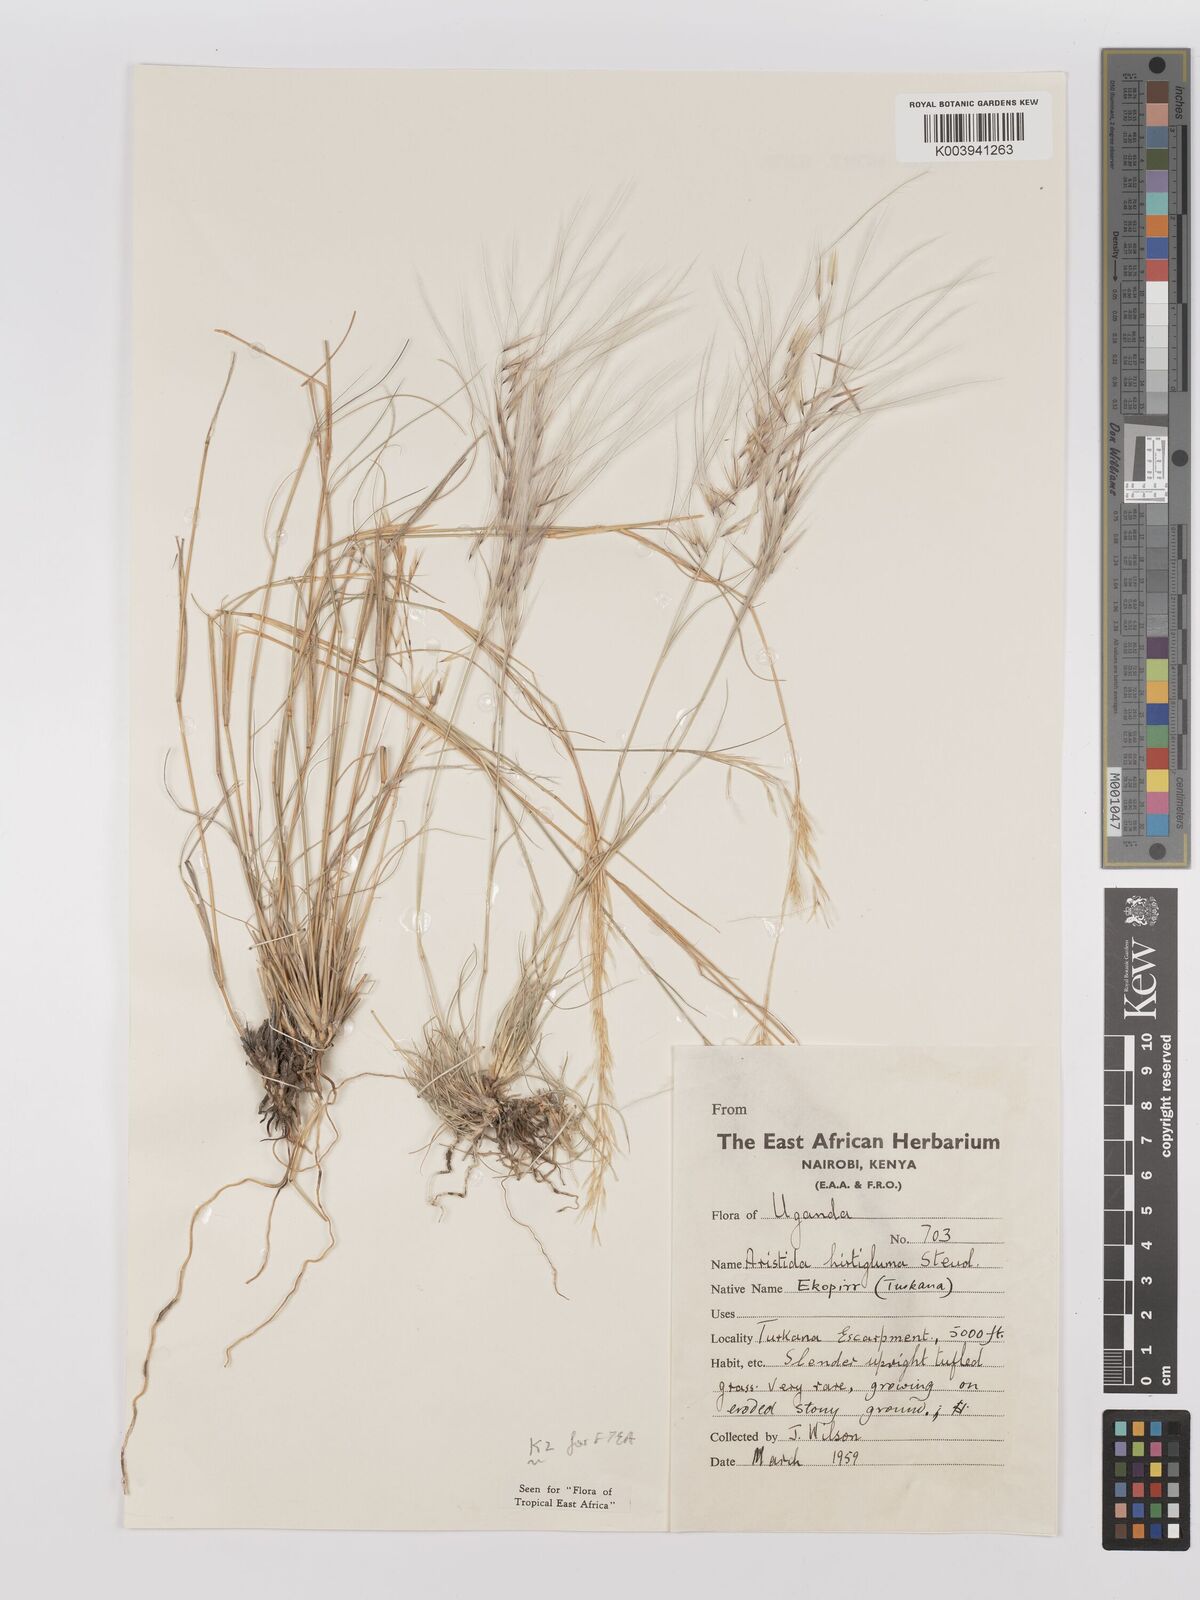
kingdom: Plantae
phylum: Tracheophyta
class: Liliopsida
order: Poales
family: Poaceae
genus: Stipagrostis
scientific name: Stipagrostis hirtigluma
